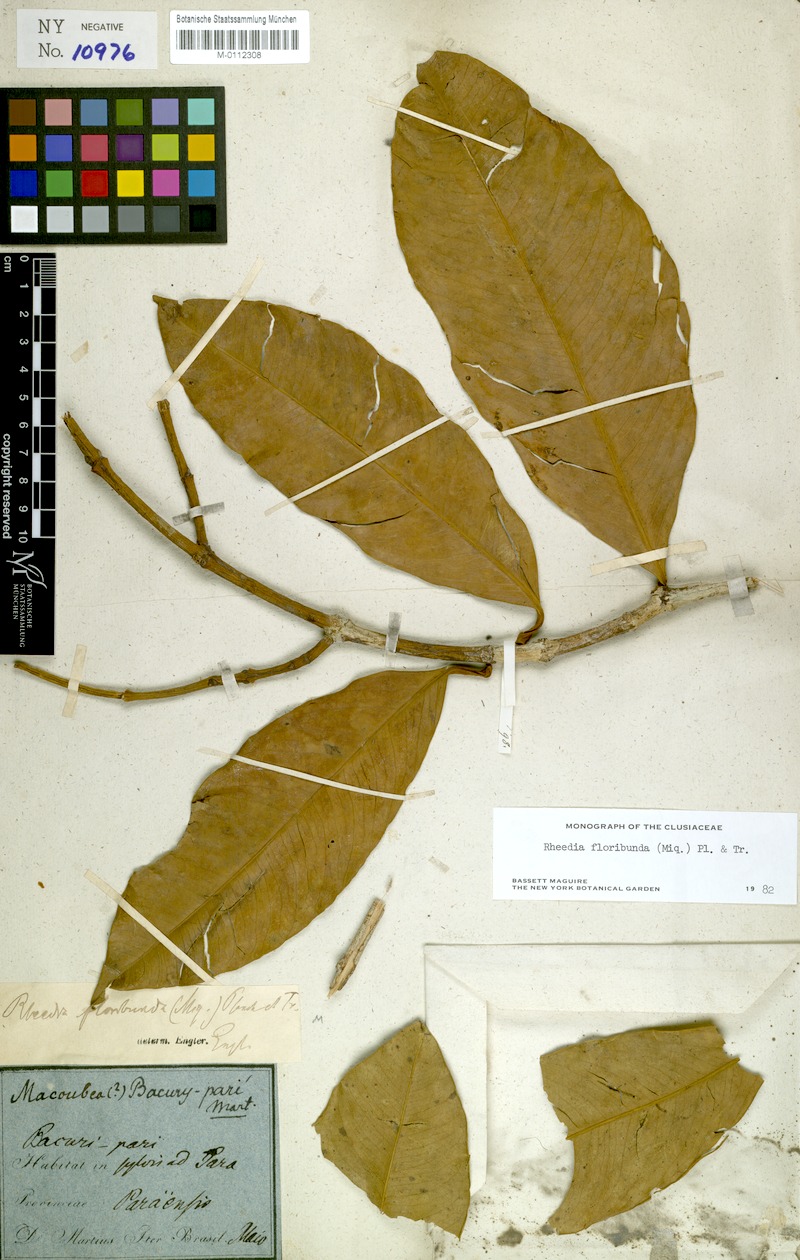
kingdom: Plantae
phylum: Tracheophyta
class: Magnoliopsida
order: Malpighiales
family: Clusiaceae
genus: Garcinia
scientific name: Garcinia madruno
